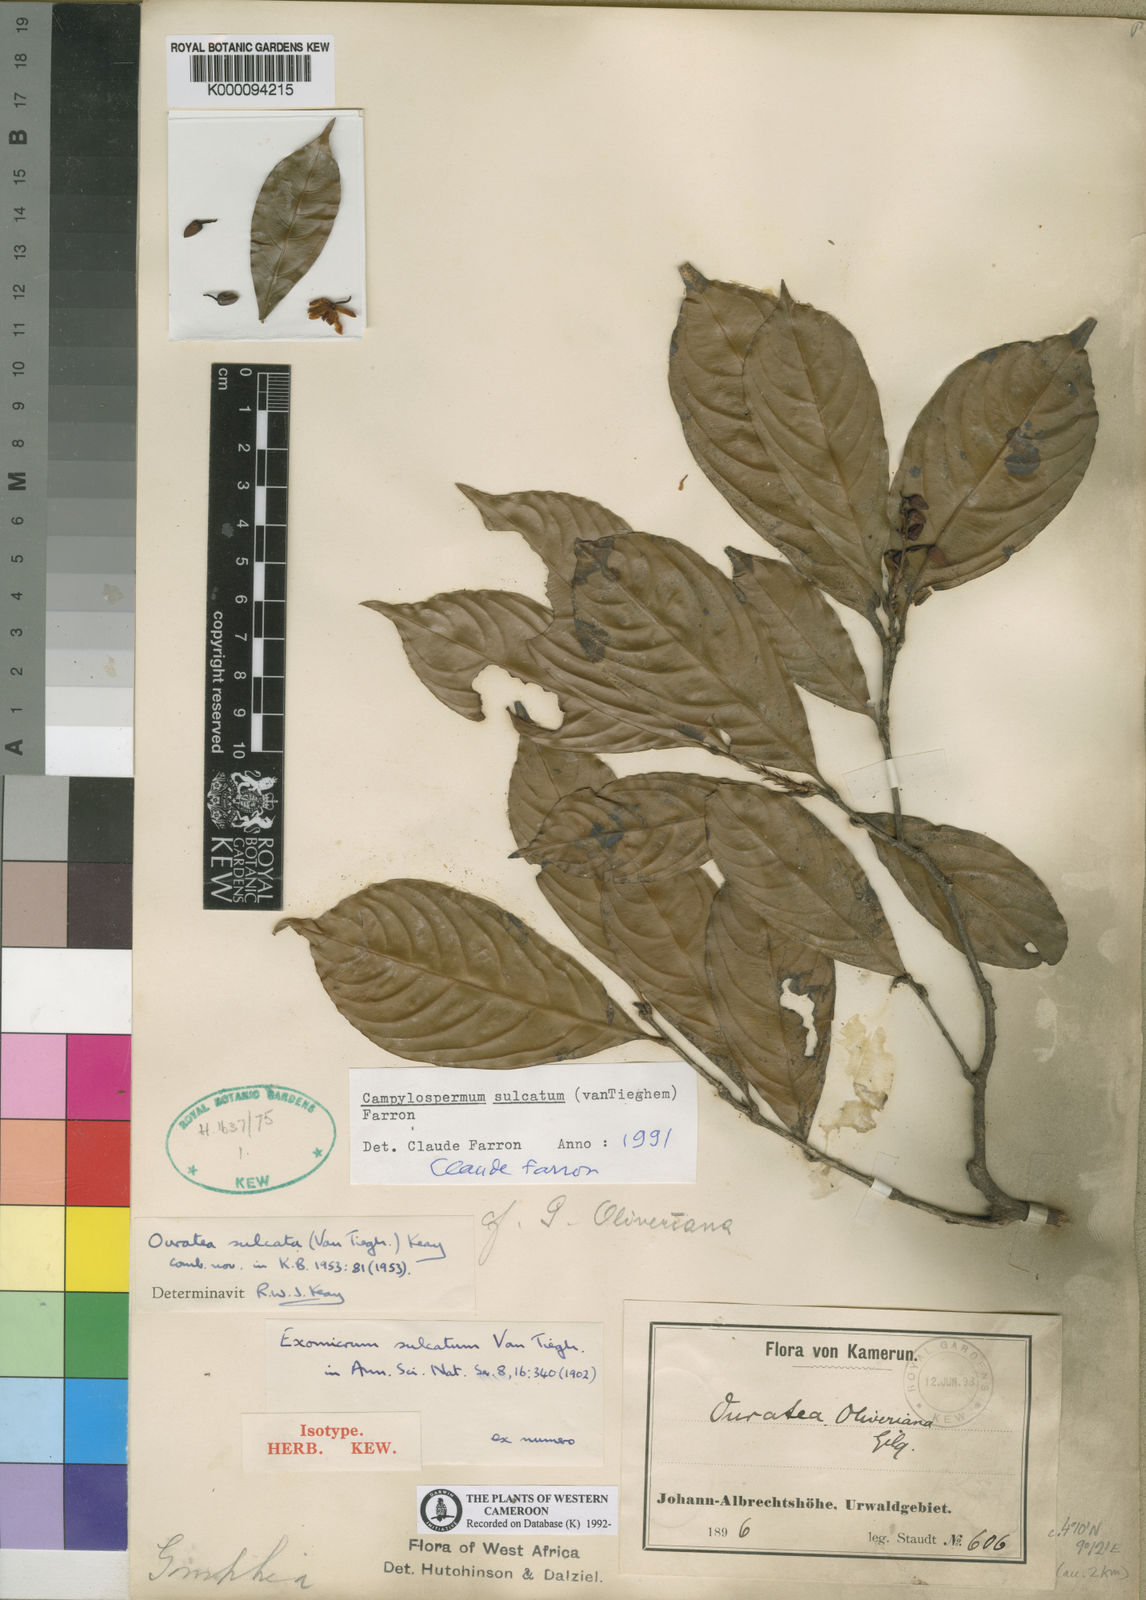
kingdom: Plantae
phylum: Tracheophyta
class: Magnoliopsida
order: Malpighiales
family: Ochnaceae
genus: Campylospermum
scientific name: Campylospermum sulcatum
